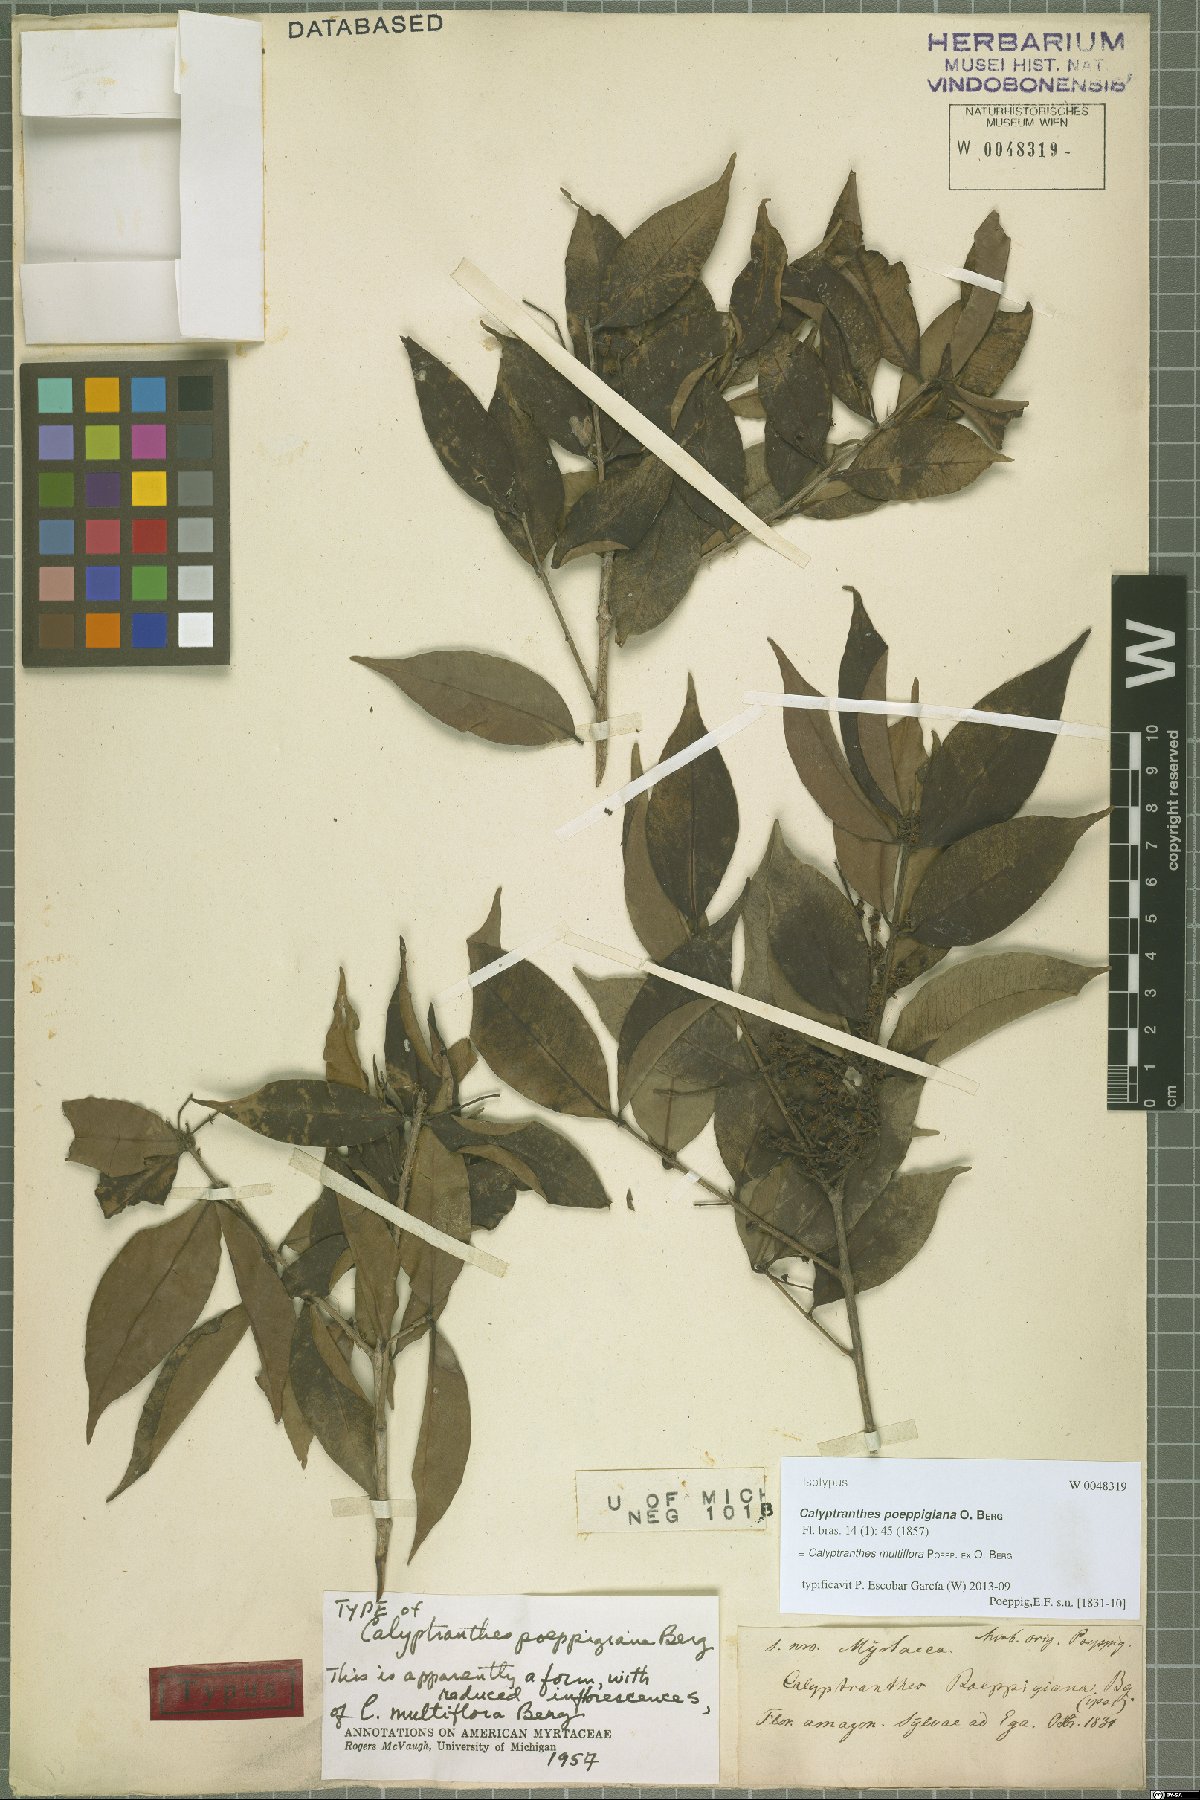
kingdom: Plantae
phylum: Tracheophyta
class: Magnoliopsida
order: Myrtales
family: Myrtaceae
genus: Myrcia
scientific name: Myrcia aulomyrcioides
